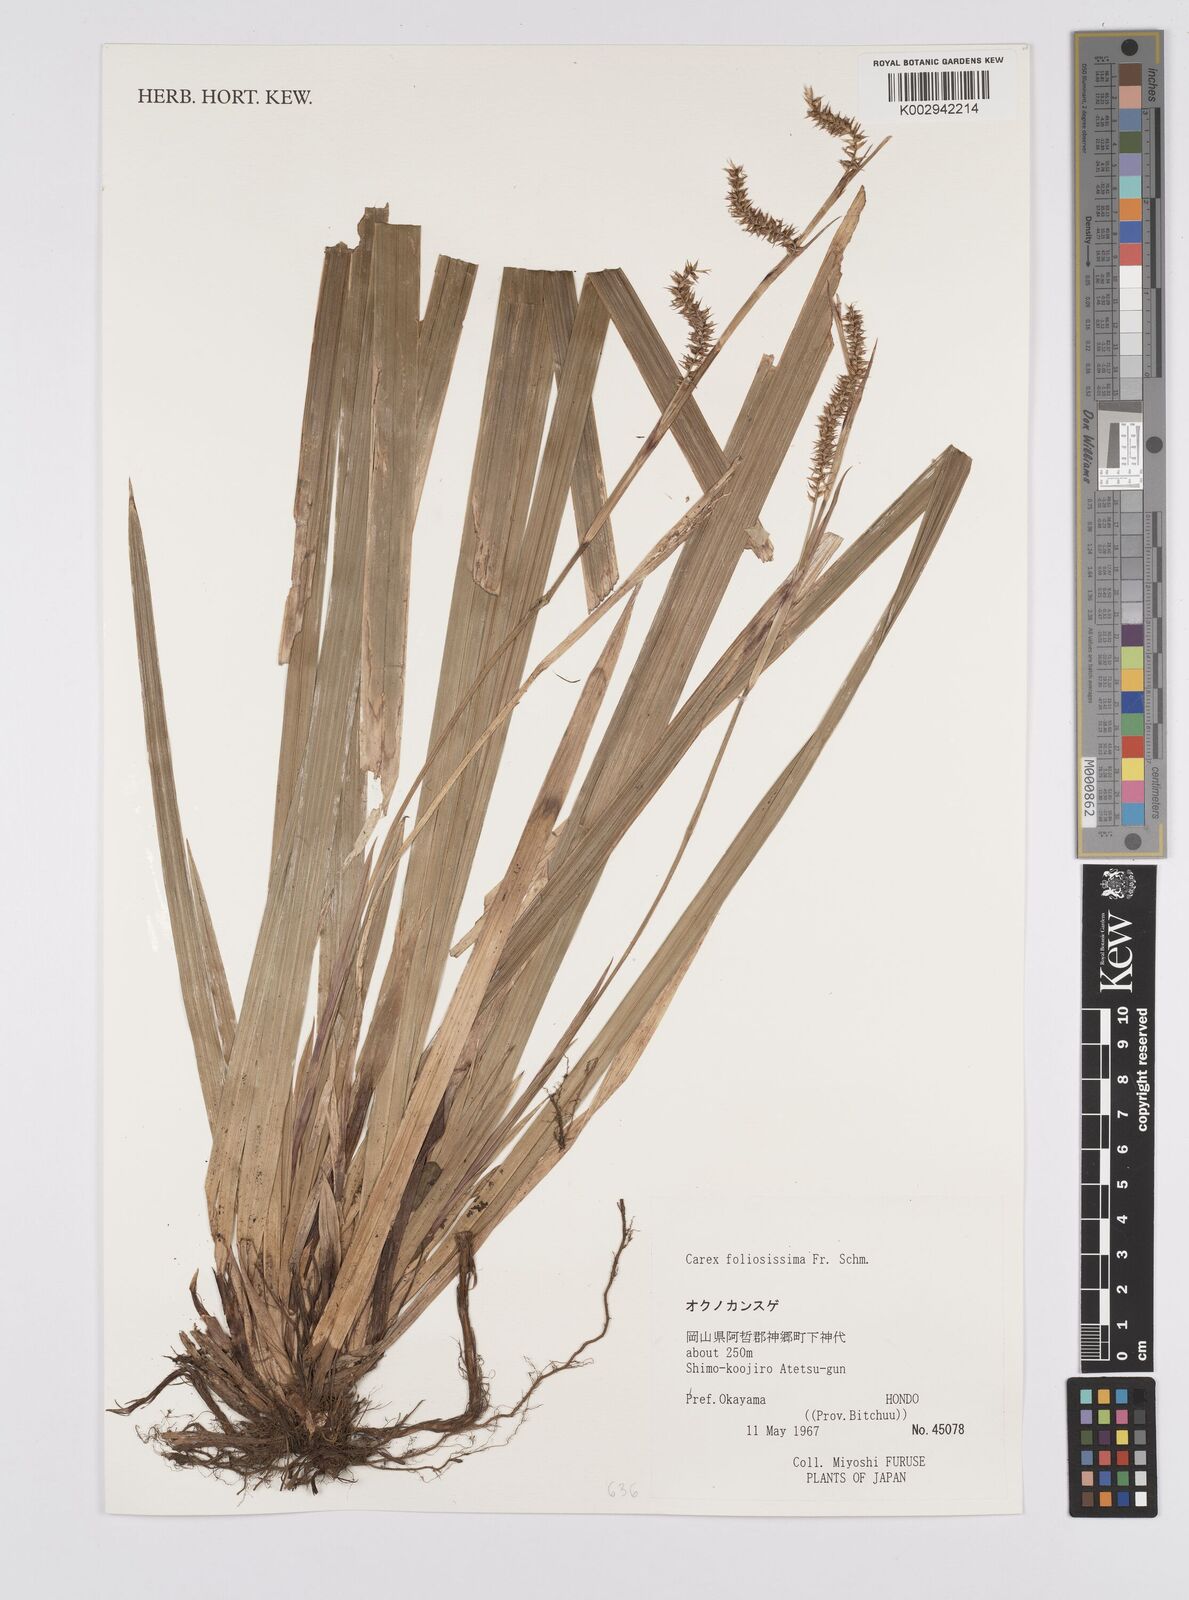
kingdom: Plantae
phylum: Tracheophyta
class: Liliopsida
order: Poales
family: Cyperaceae
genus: Carex
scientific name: Carex morrowii
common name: Japanese sedge
